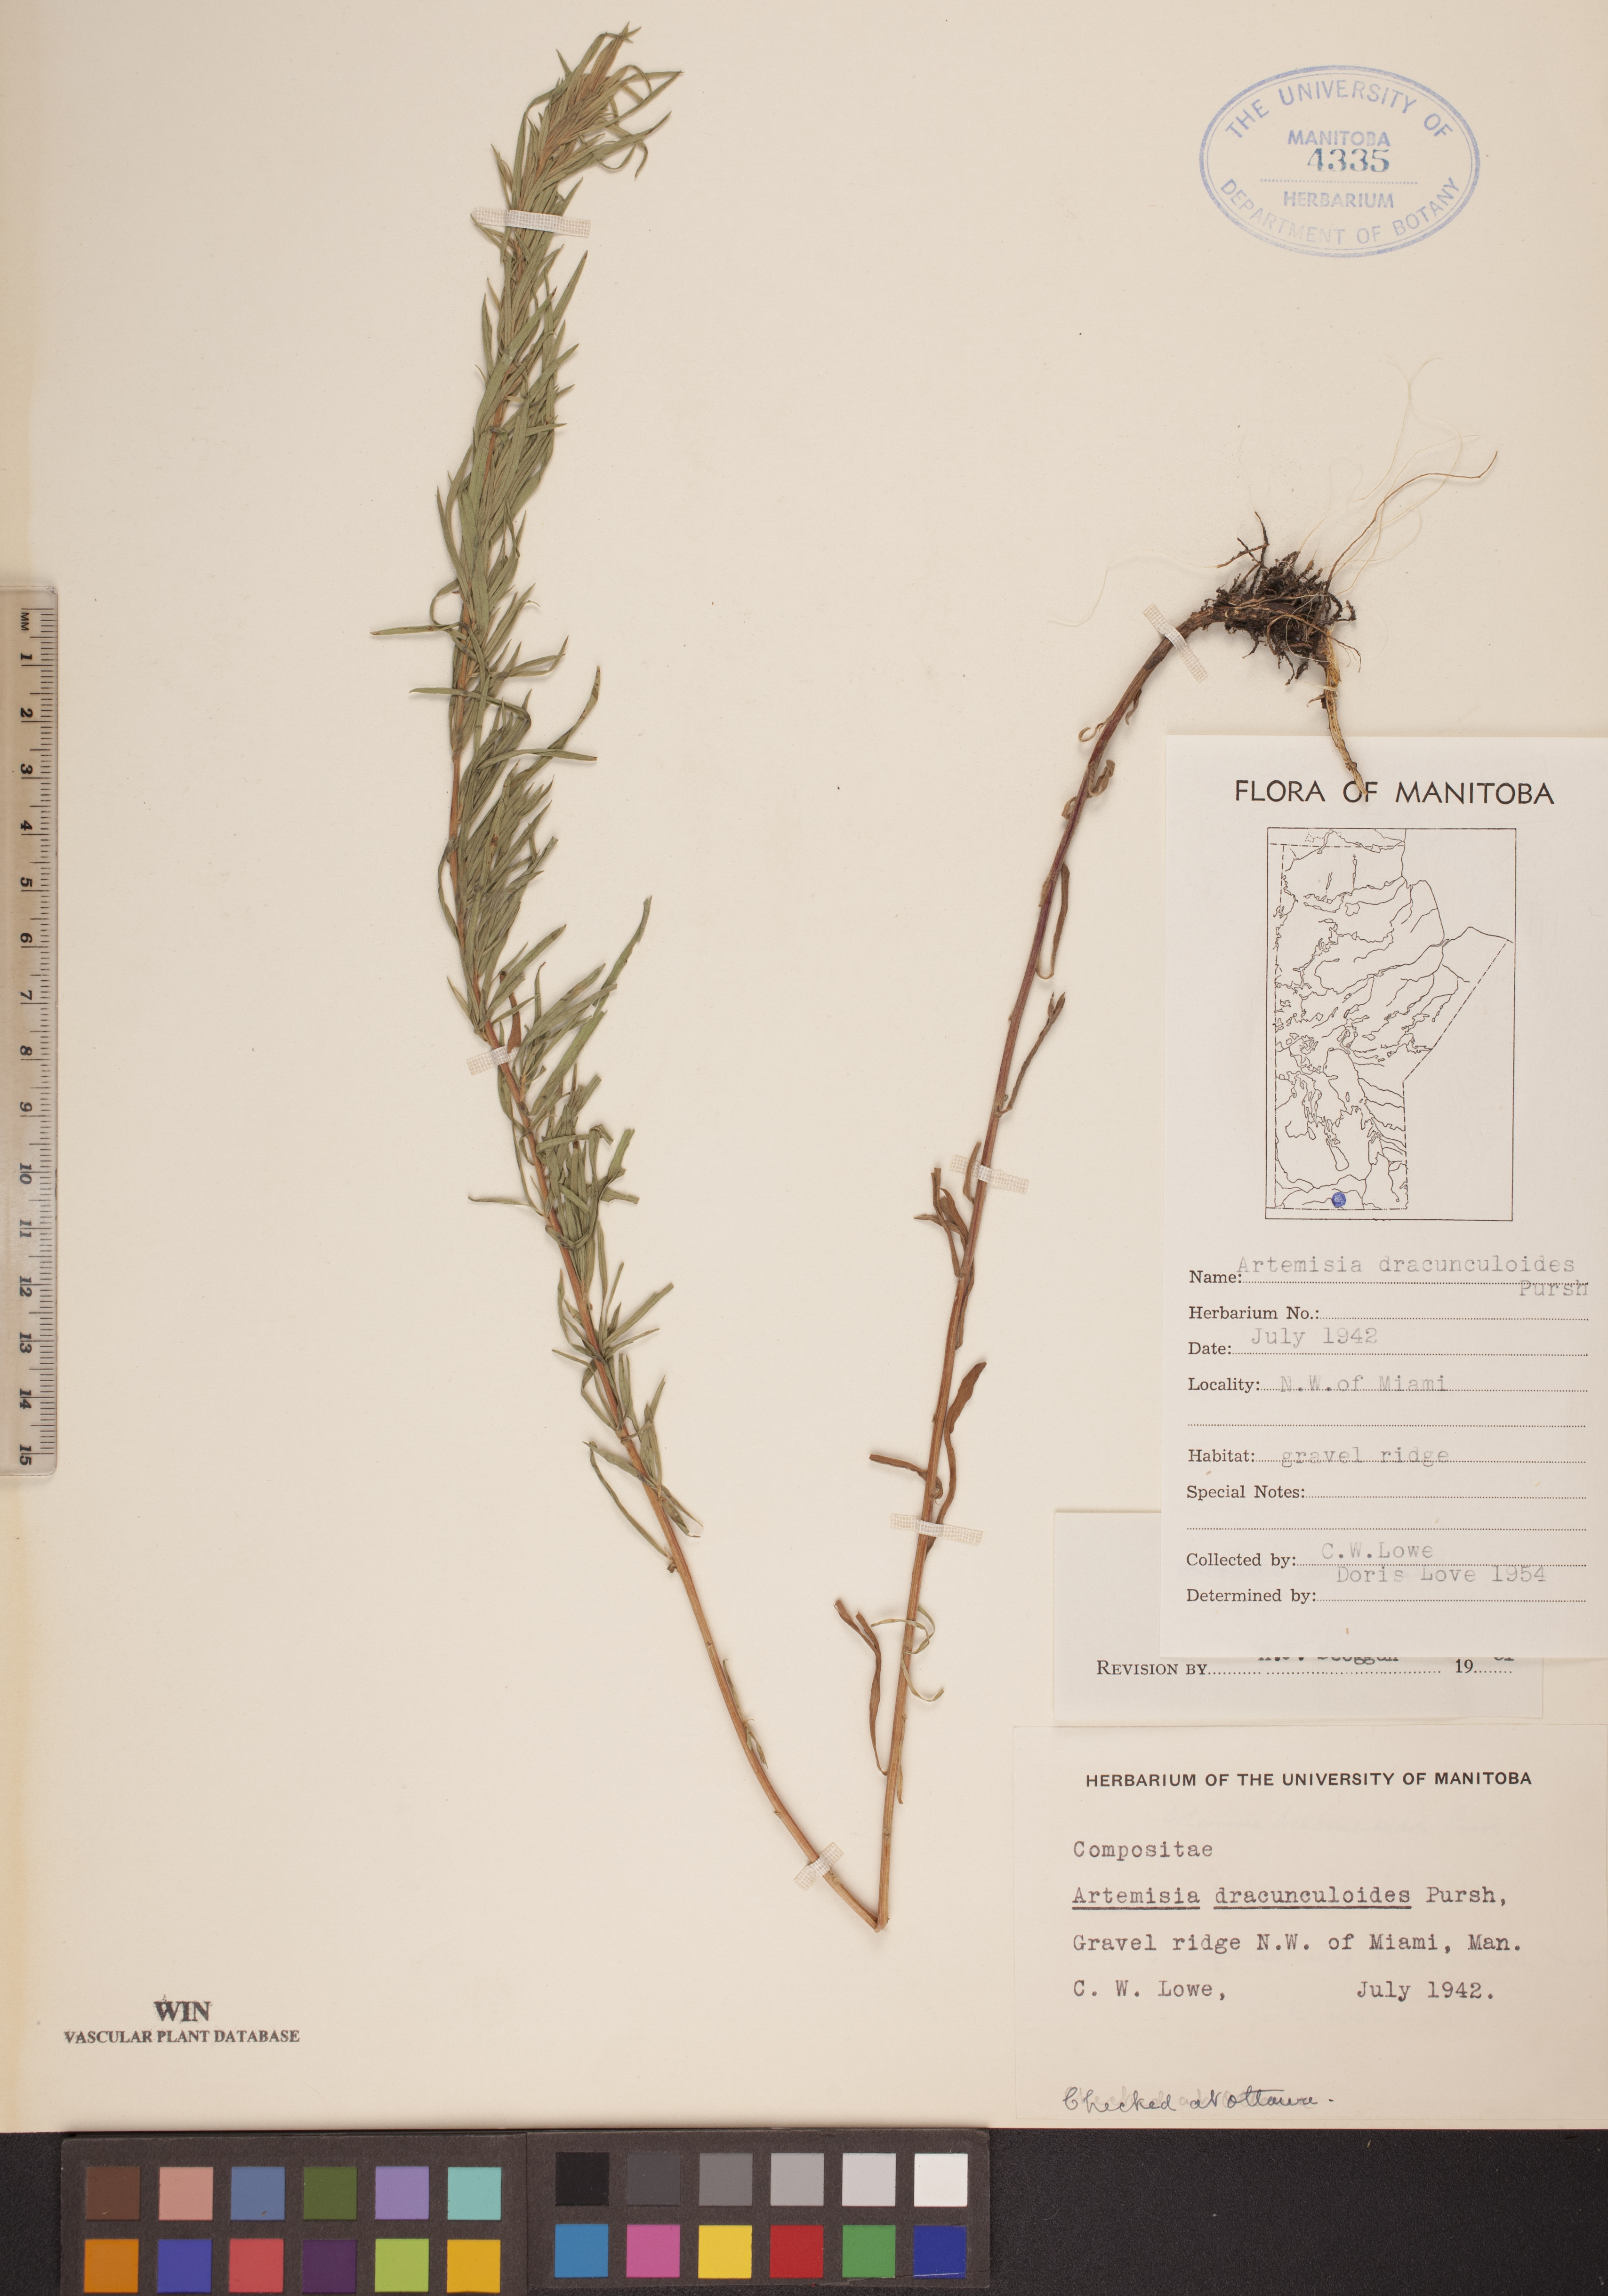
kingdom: Plantae
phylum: Tracheophyta
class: Magnoliopsida
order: Asterales
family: Asteraceae
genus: Artemisia
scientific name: Artemisia dracunculus
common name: Tarragon
